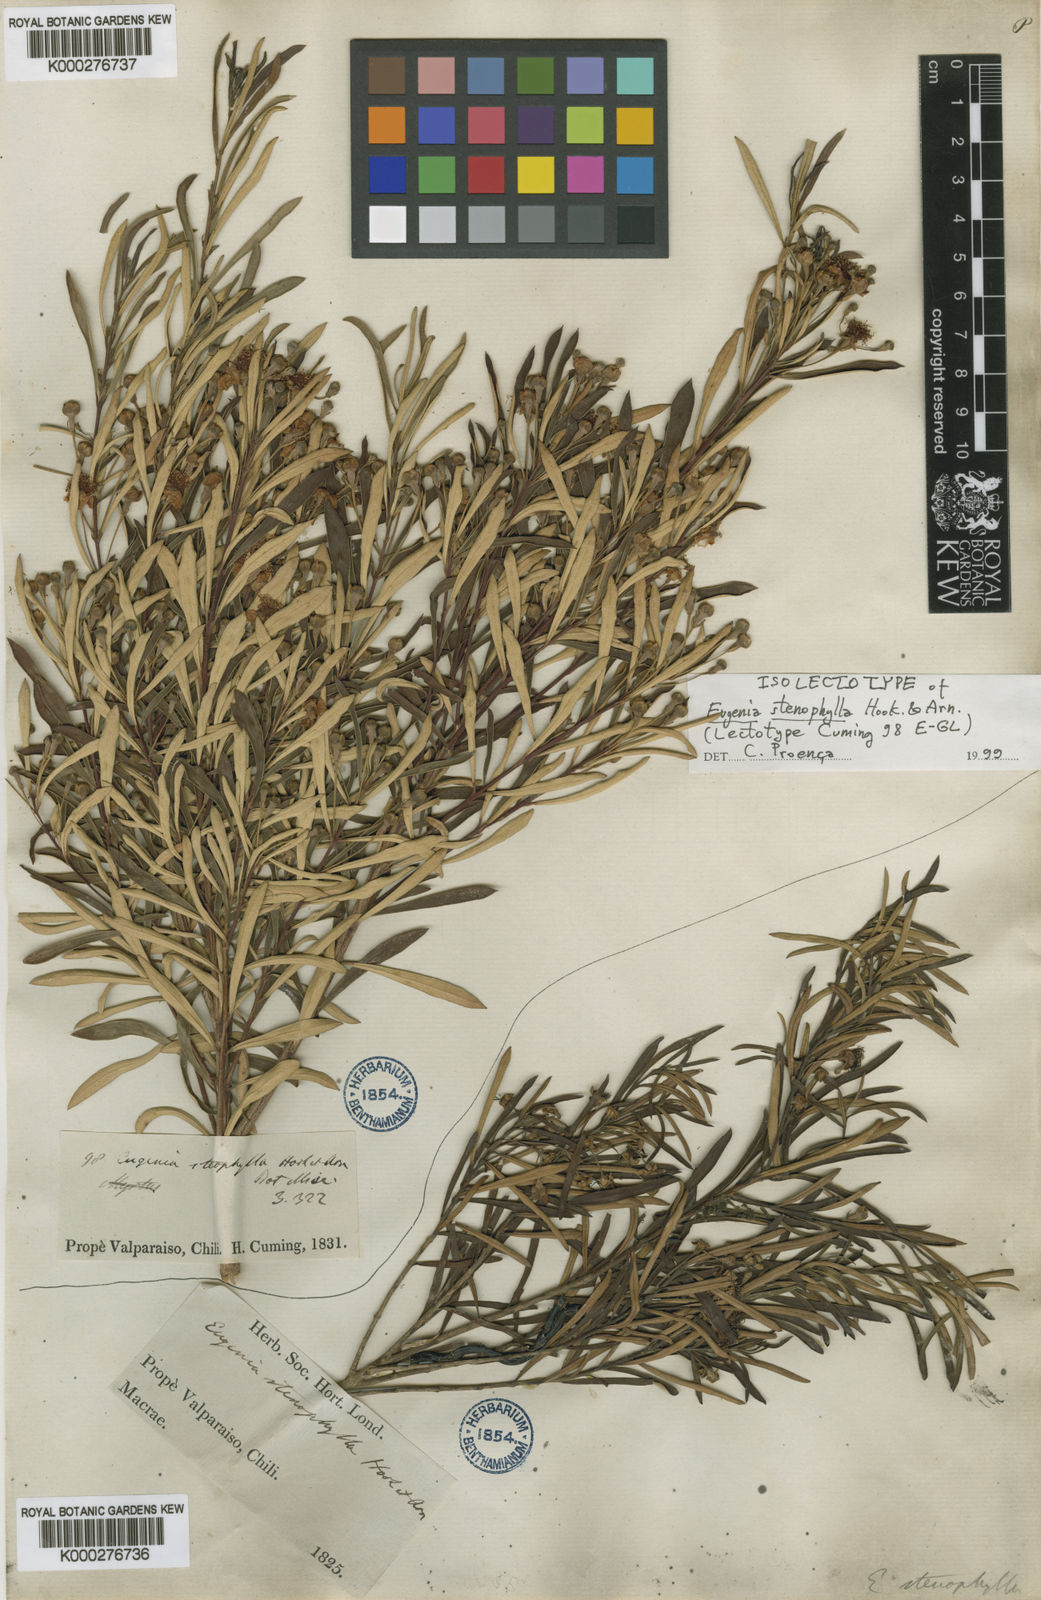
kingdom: Plantae
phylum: Tracheophyta
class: Magnoliopsida
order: Myrtales
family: Myrtaceae
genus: Myrceugenia
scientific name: Myrceugenia lanceolata
